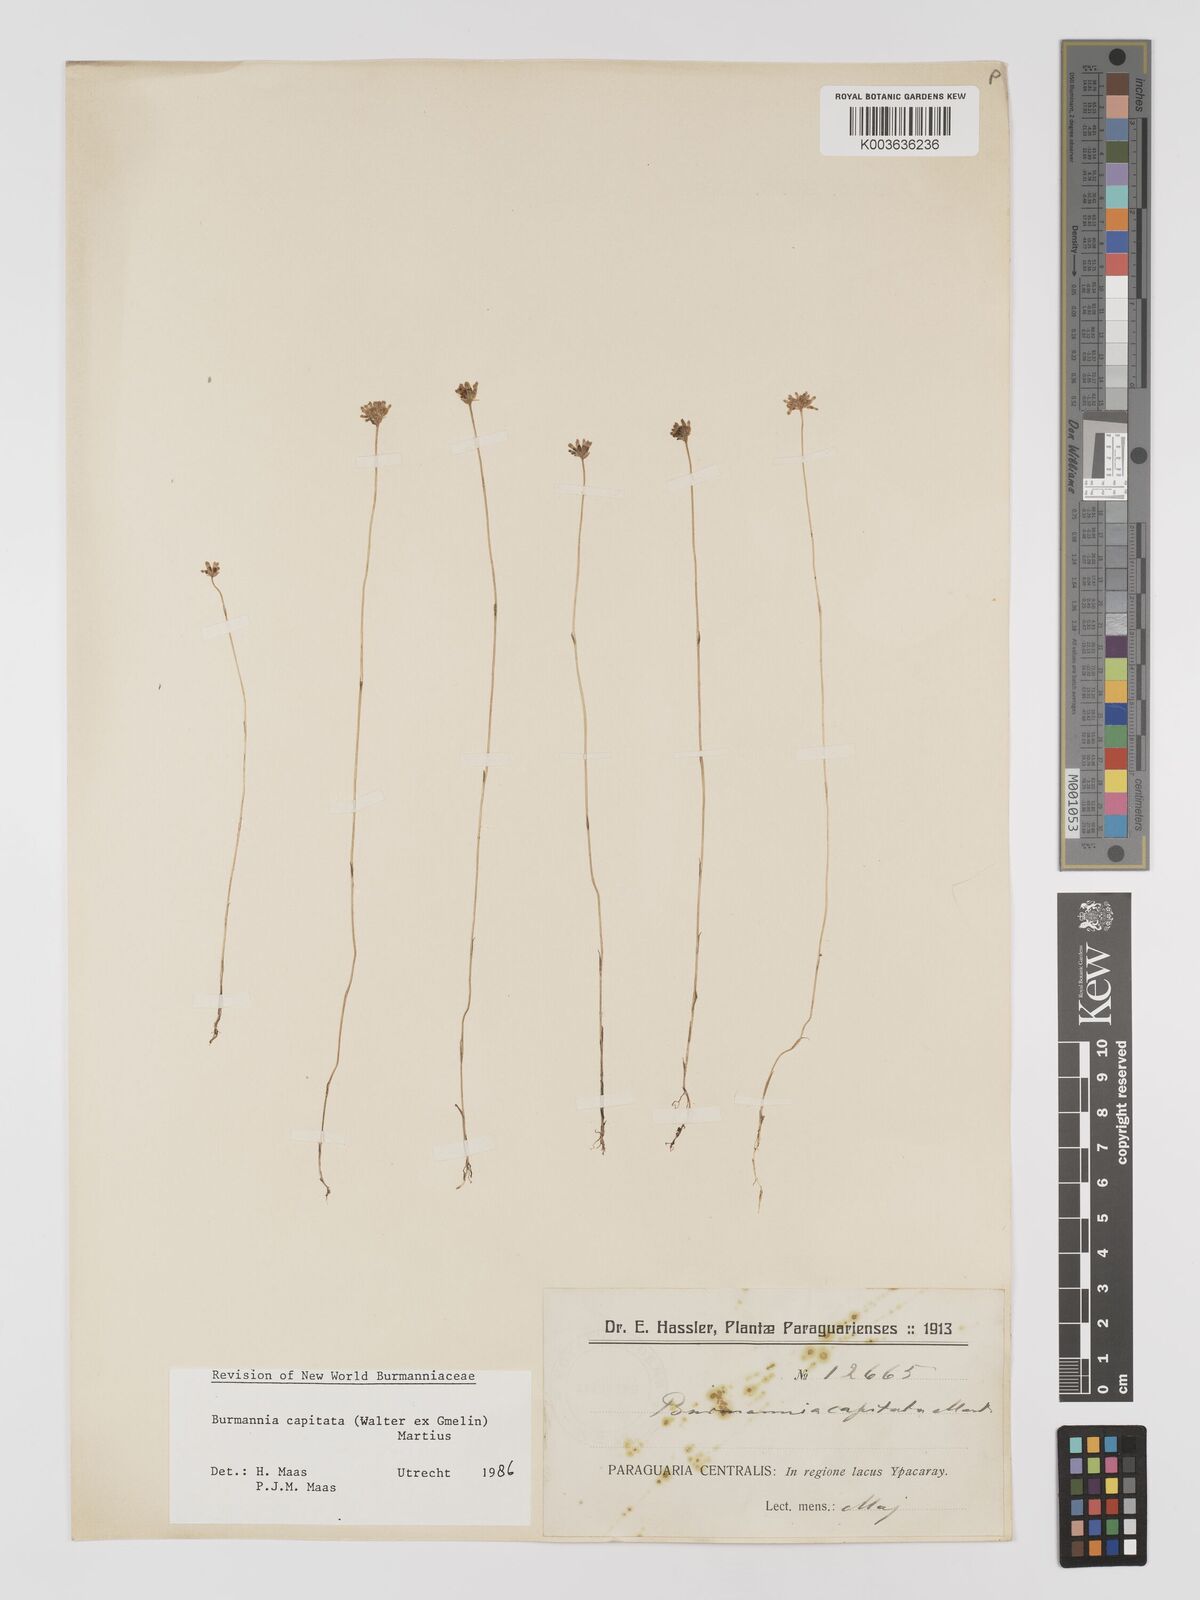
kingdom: Plantae
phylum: Tracheophyta
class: Liliopsida
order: Dioscoreales
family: Burmanniaceae
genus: Burmannia
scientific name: Burmannia capitata
